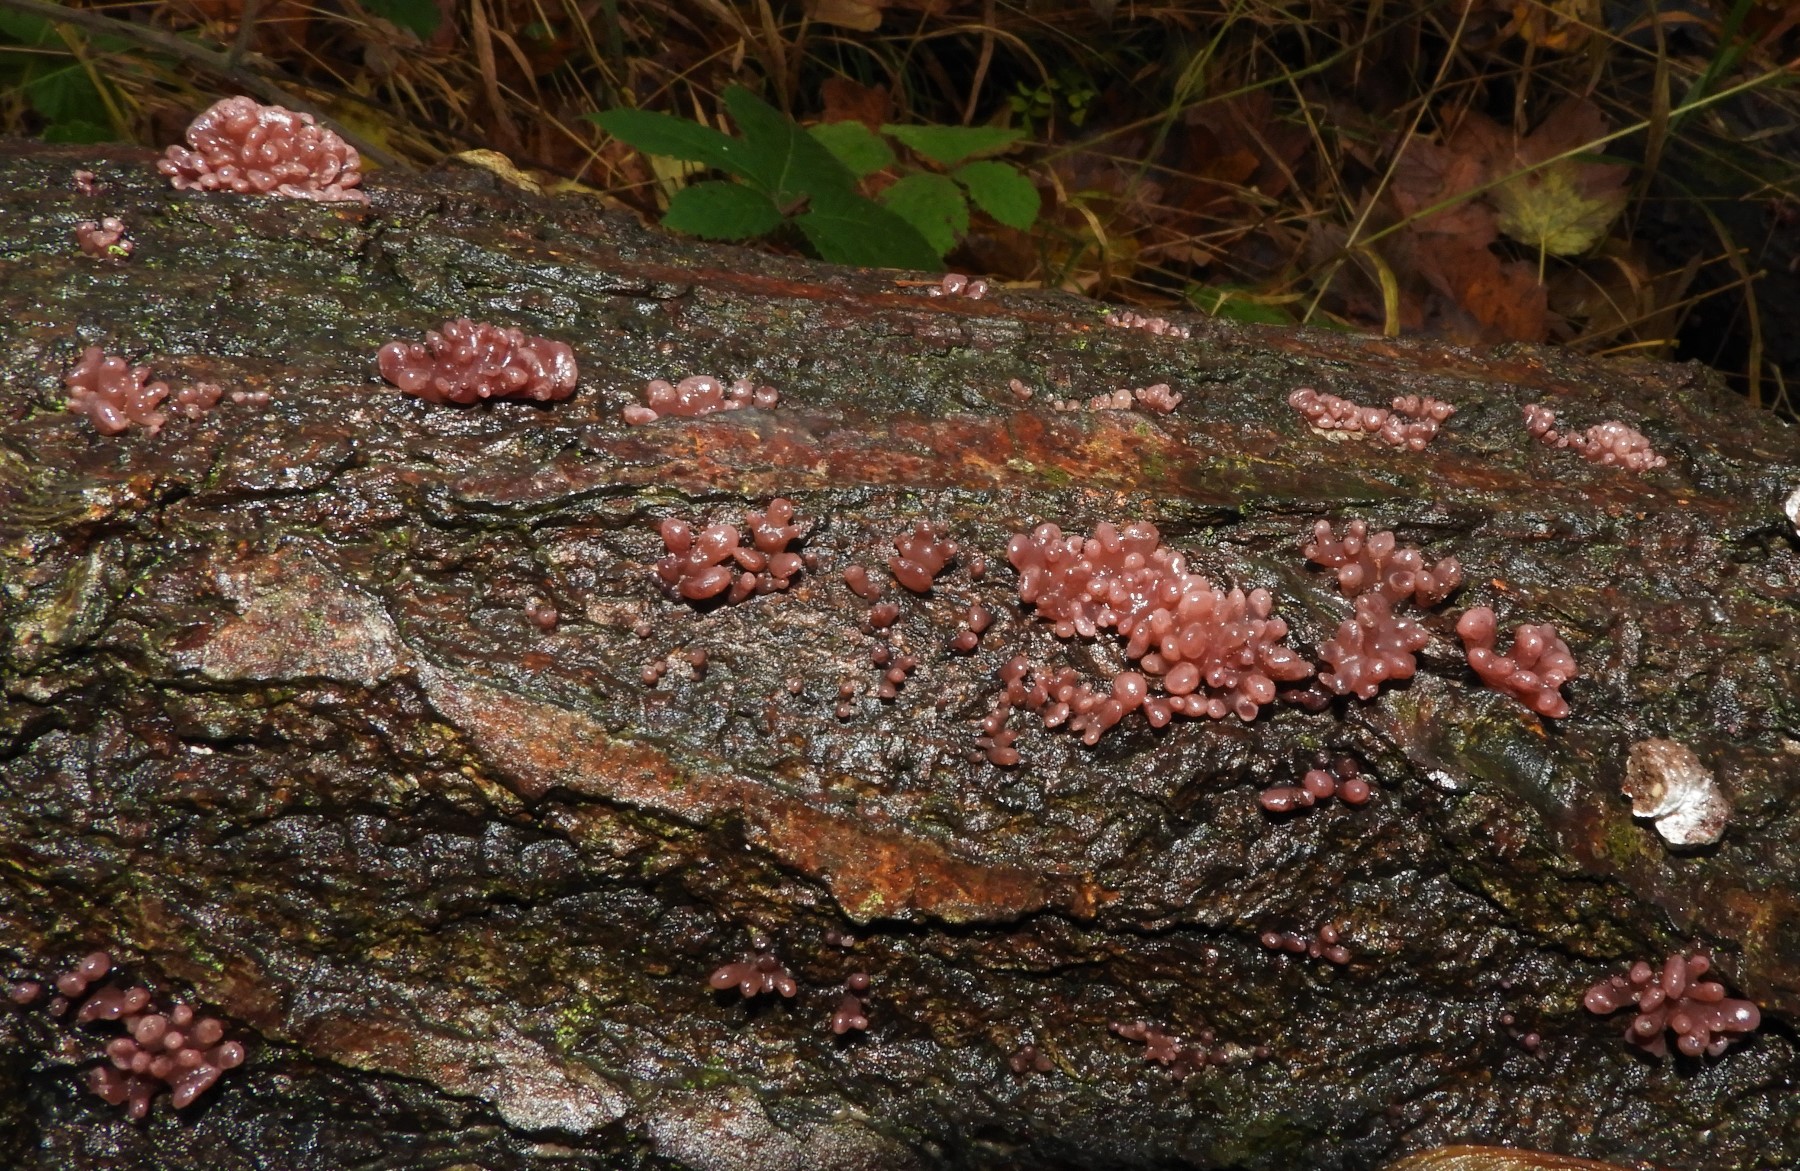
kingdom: Fungi
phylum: Ascomycota
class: Leotiomycetes
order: Helotiales
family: Gelatinodiscaceae
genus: Ascocoryne
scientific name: Ascocoryne sarcoides
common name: rødlilla sejskive
